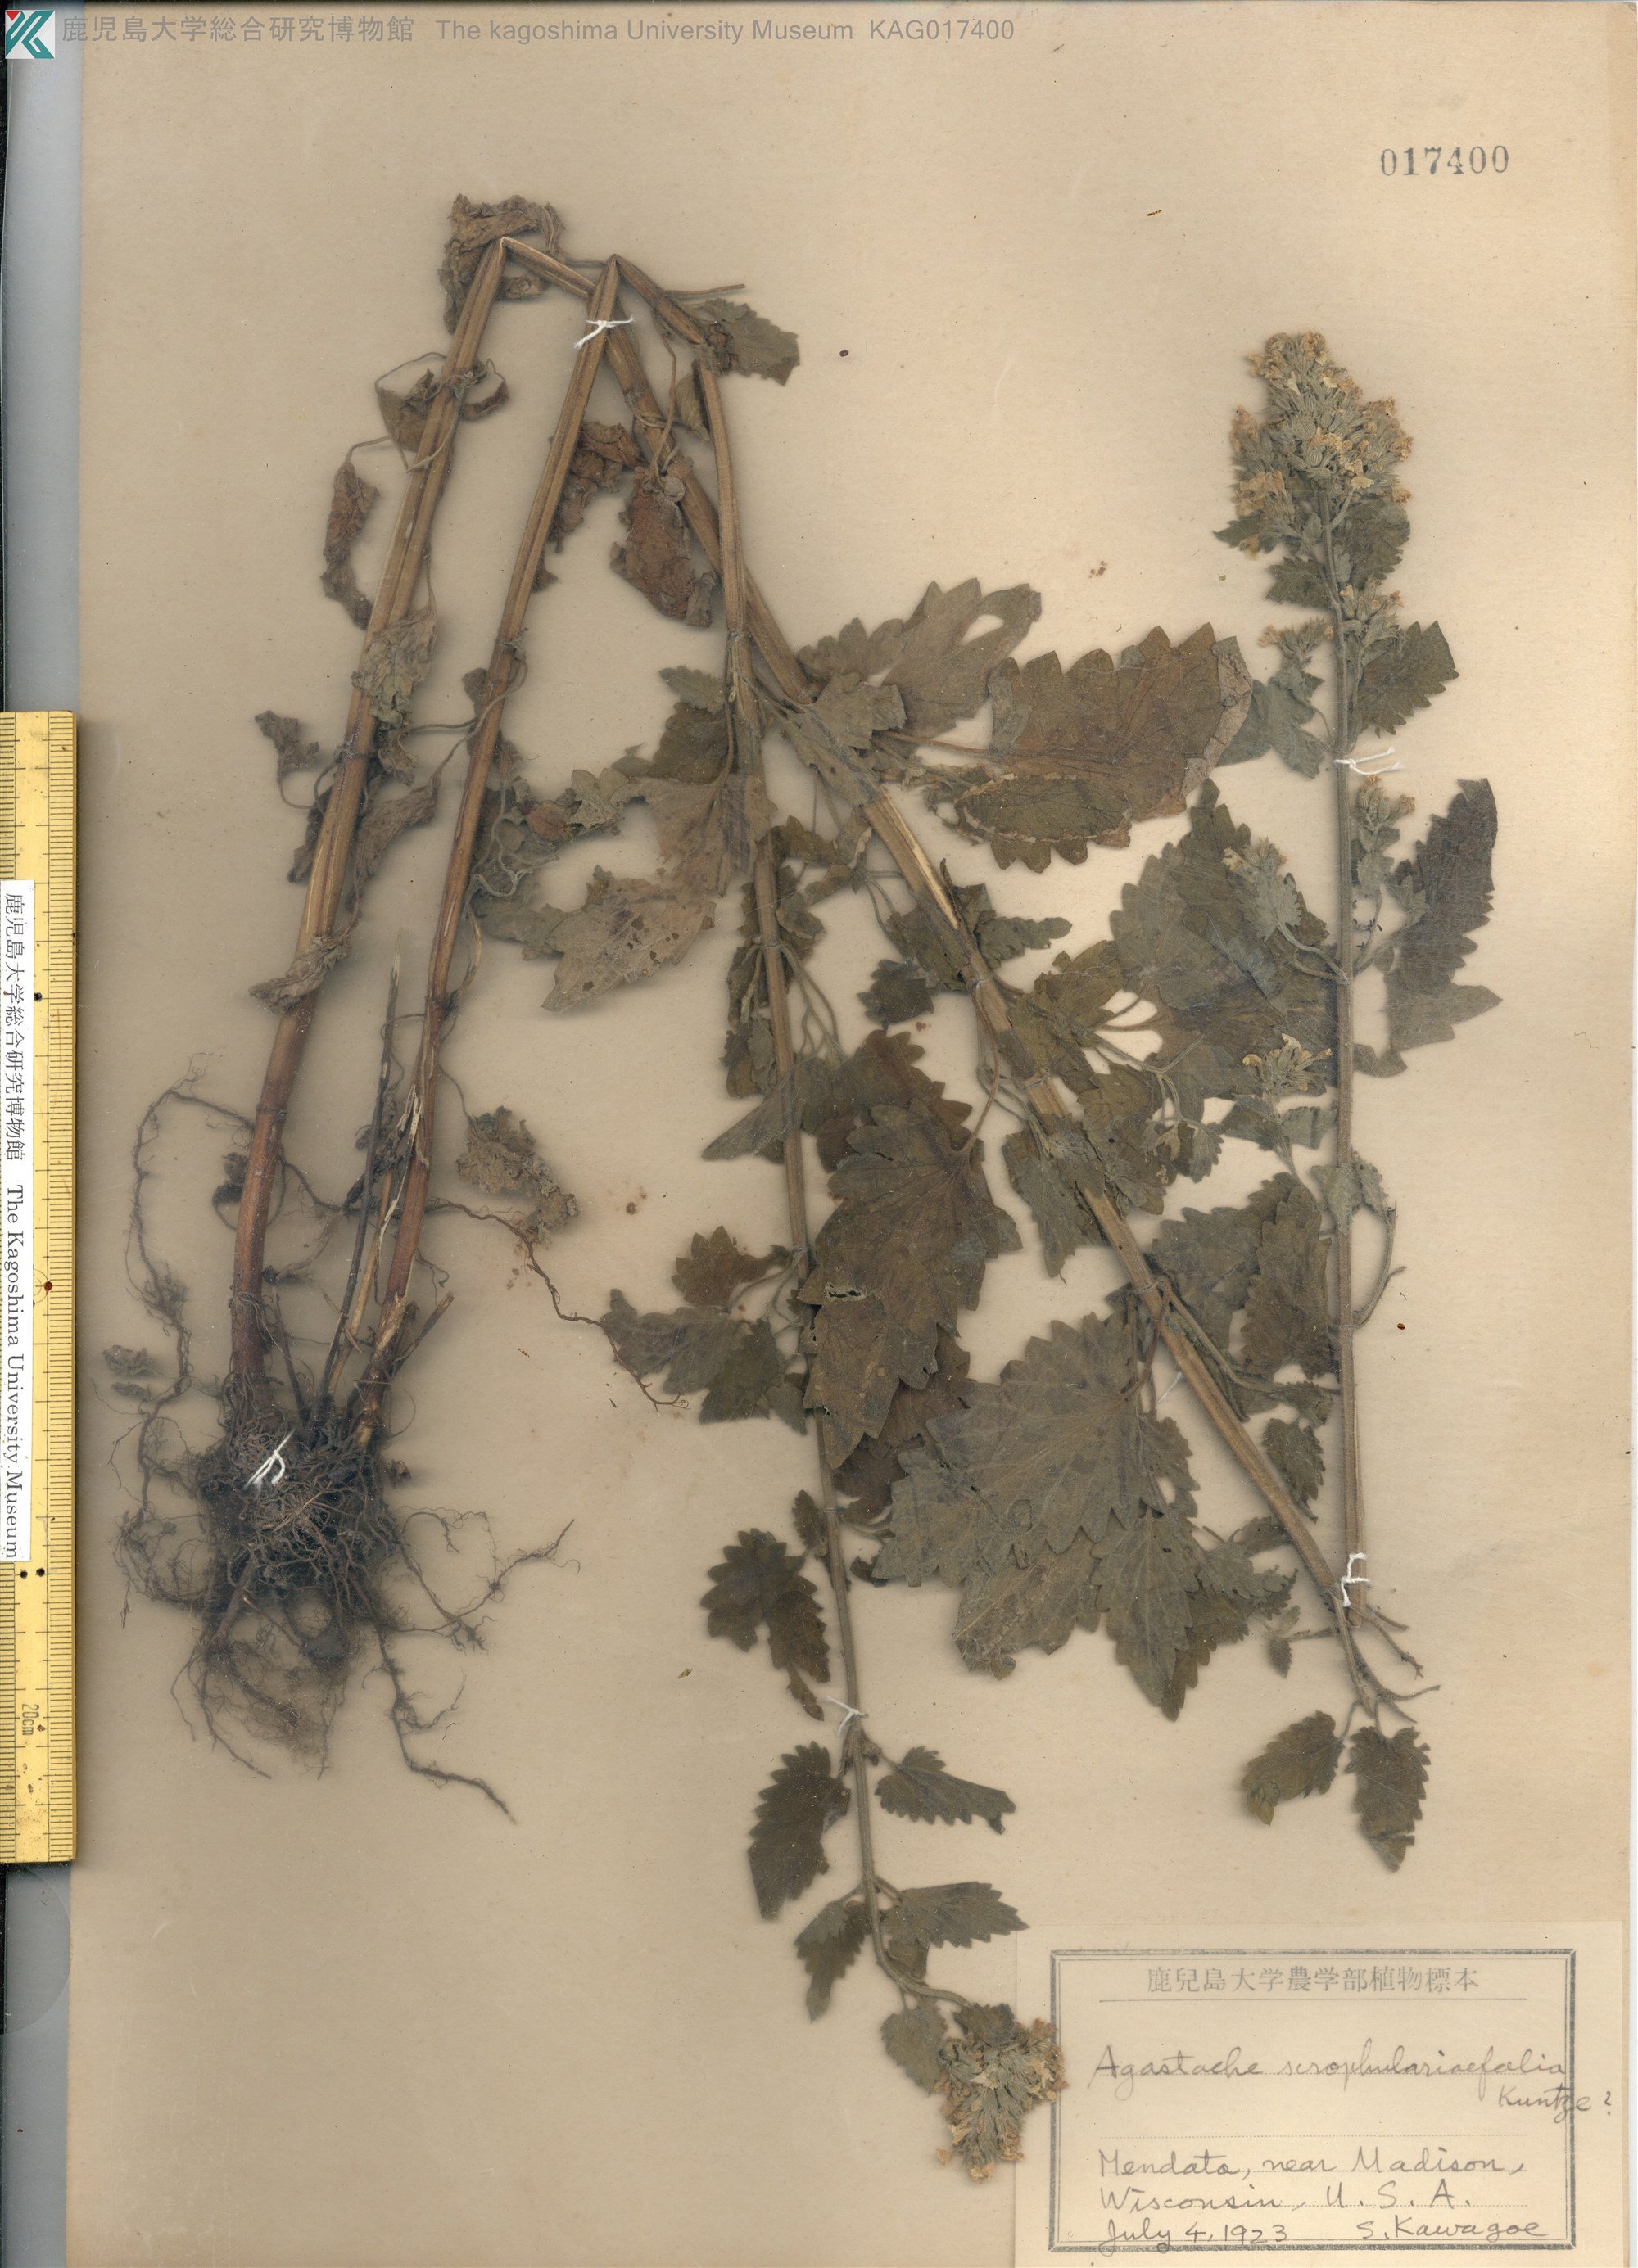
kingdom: Plantae
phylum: Tracheophyta
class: Magnoliopsida
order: Lamiales
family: Lamiaceae
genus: Agastache
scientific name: Agastache scrophulariifolia
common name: Figwort giant hyssop
